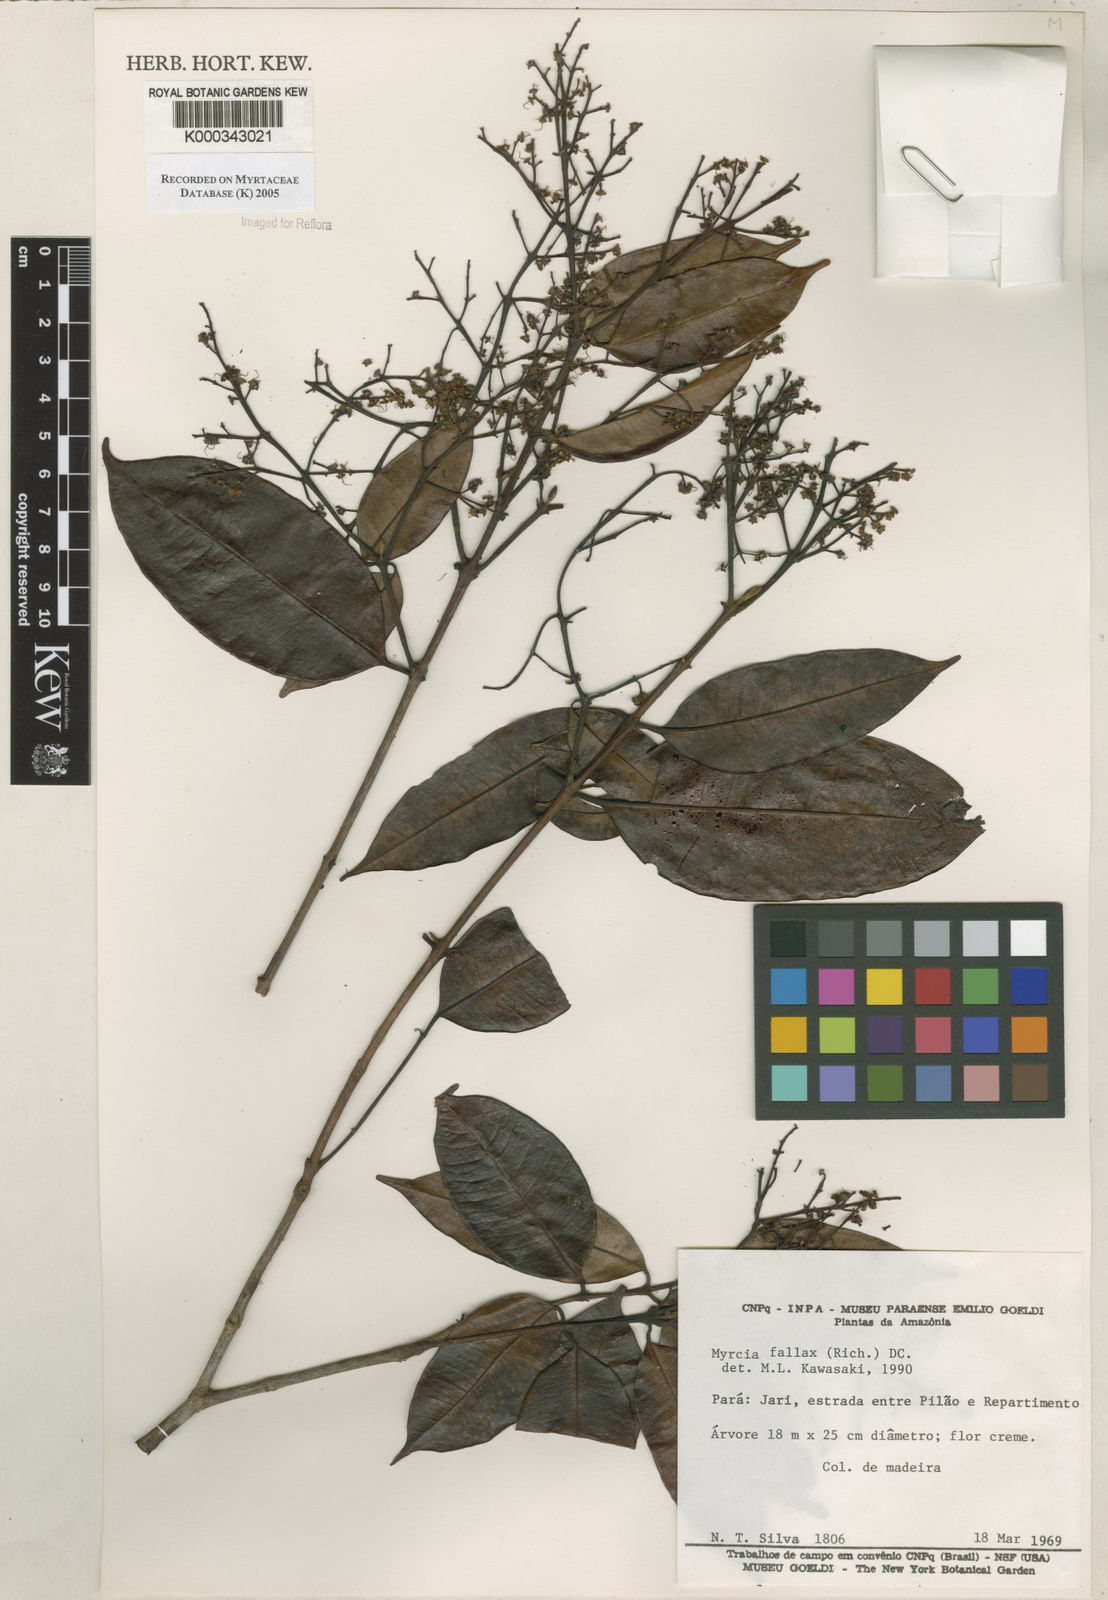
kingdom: Plantae
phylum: Tracheophyta
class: Magnoliopsida
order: Myrtales
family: Myrtaceae
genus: Myrcia
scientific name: Myrcia splendens
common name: Surinam cherry
